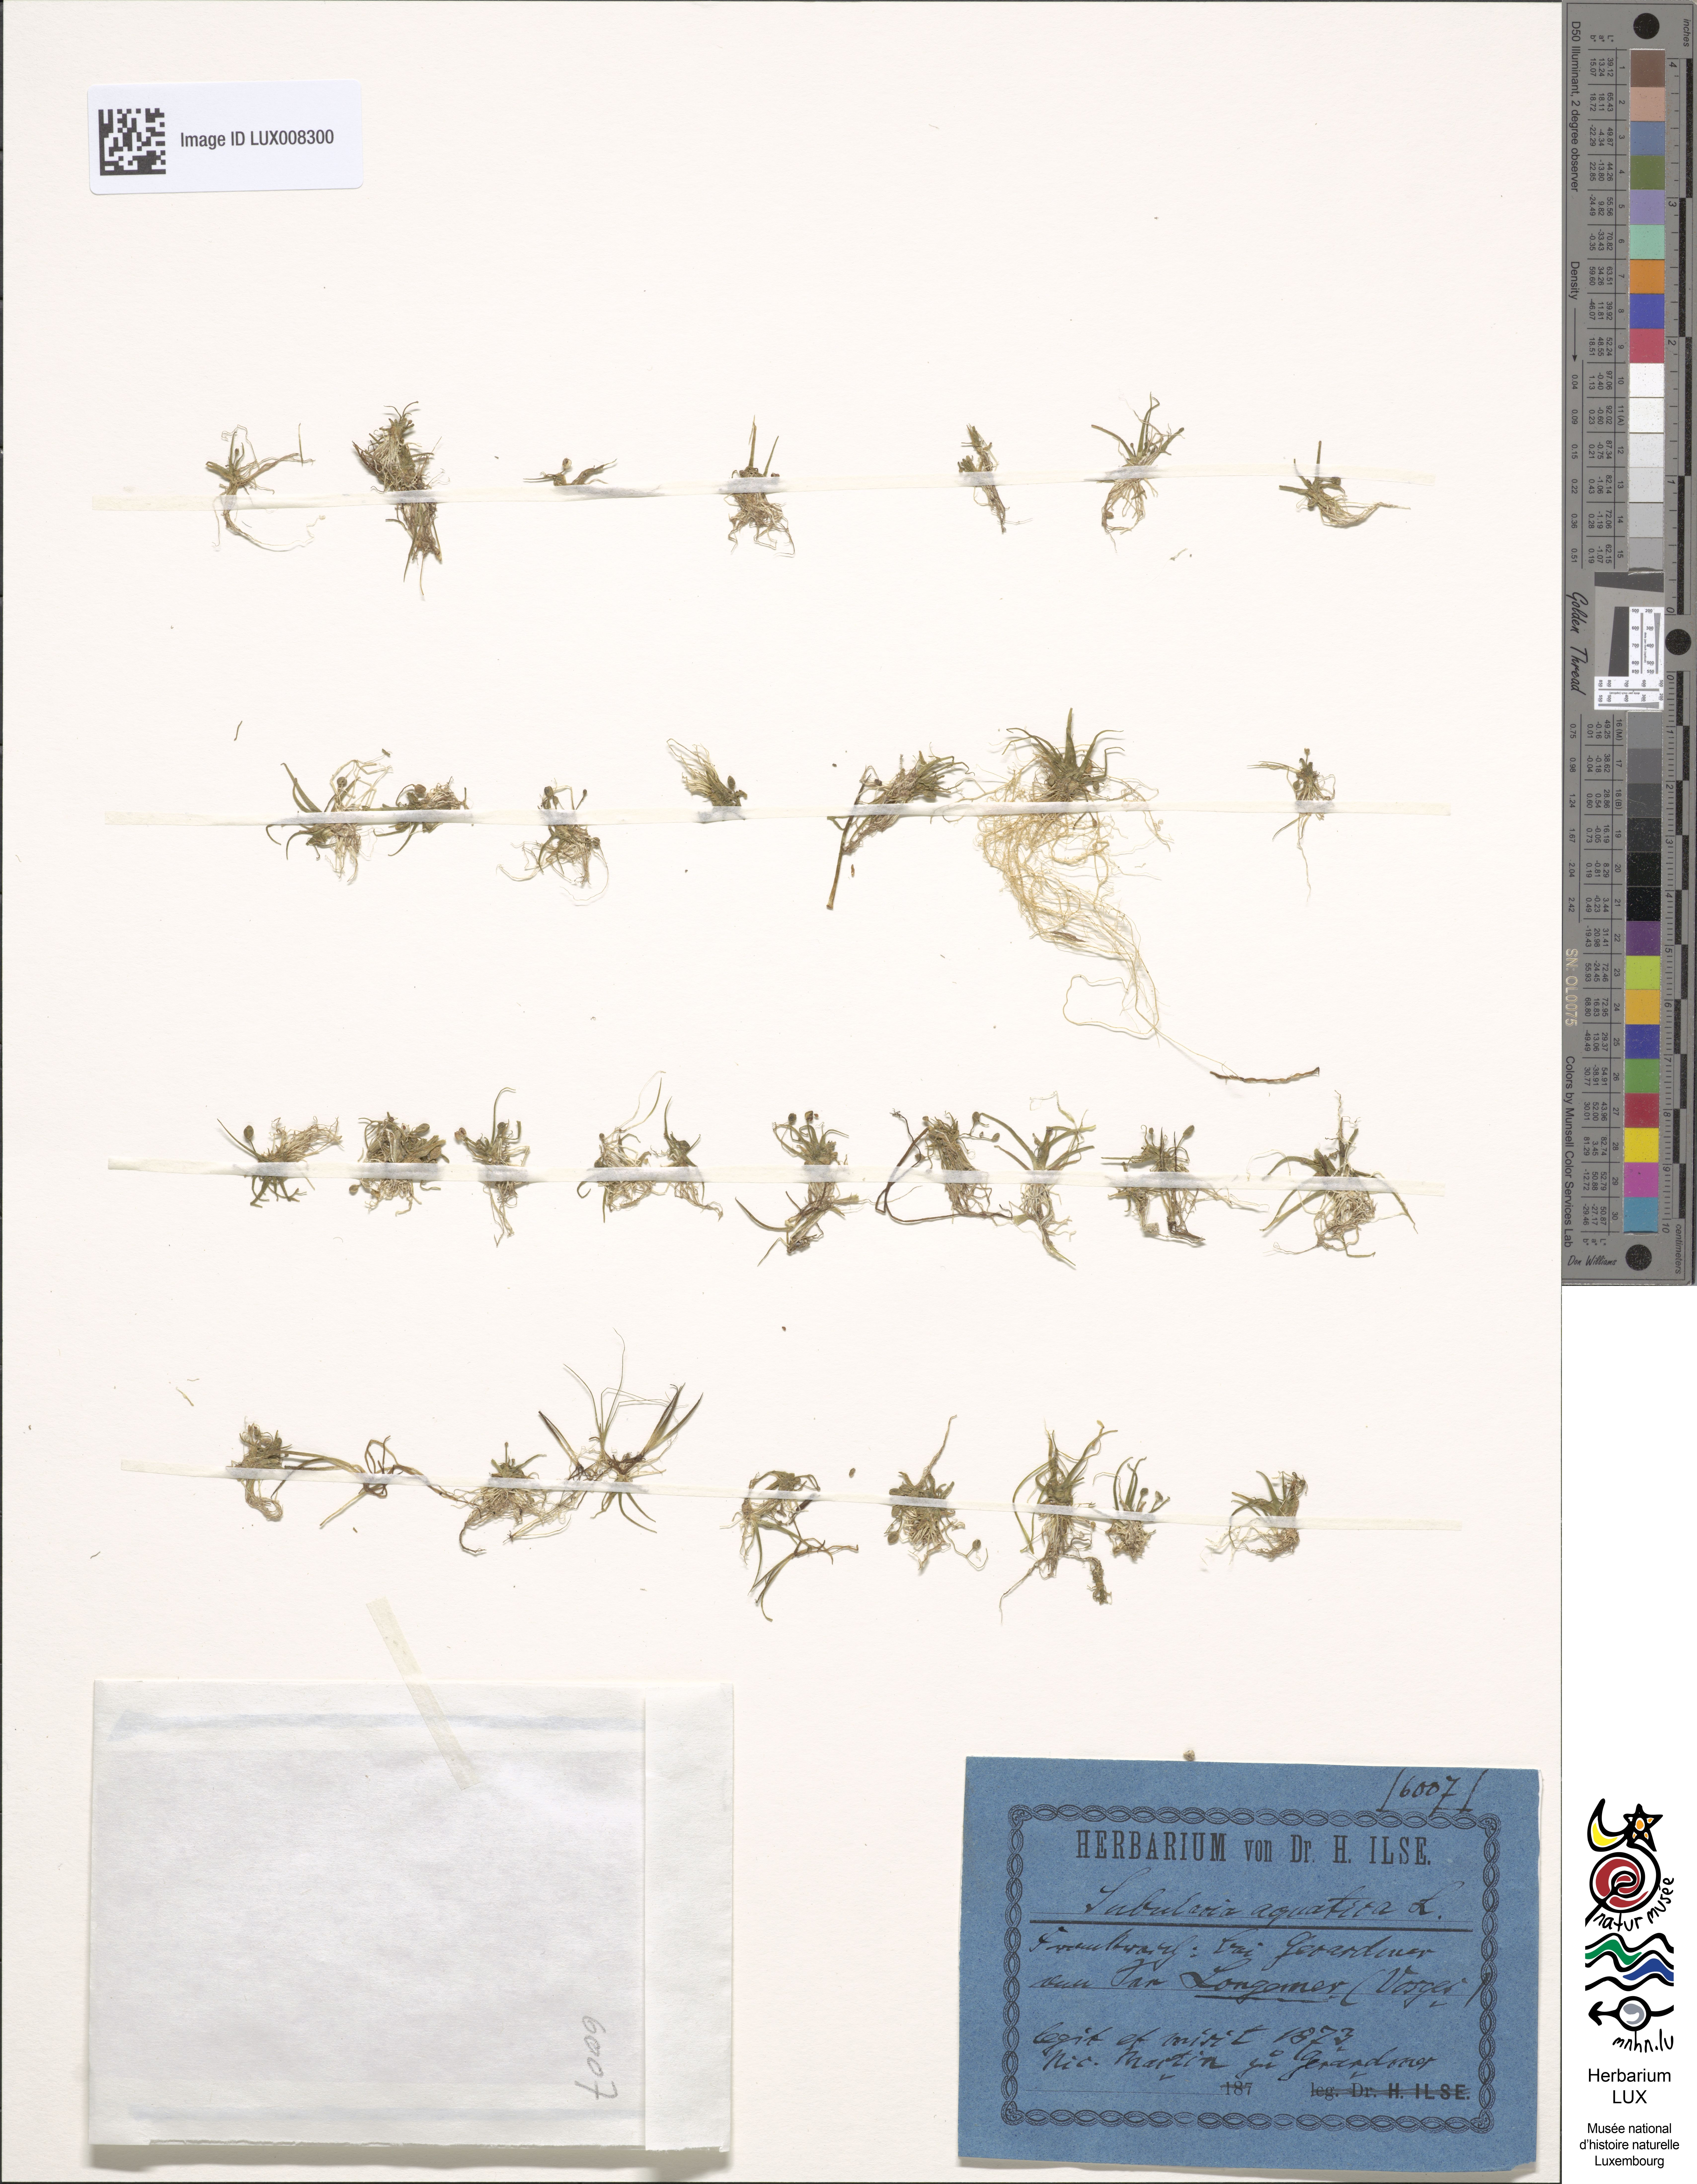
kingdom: Plantae
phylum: Tracheophyta
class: Magnoliopsida
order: Brassicales
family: Brassicaceae
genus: Subularia
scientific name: Subularia aquatica
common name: Awlwort
